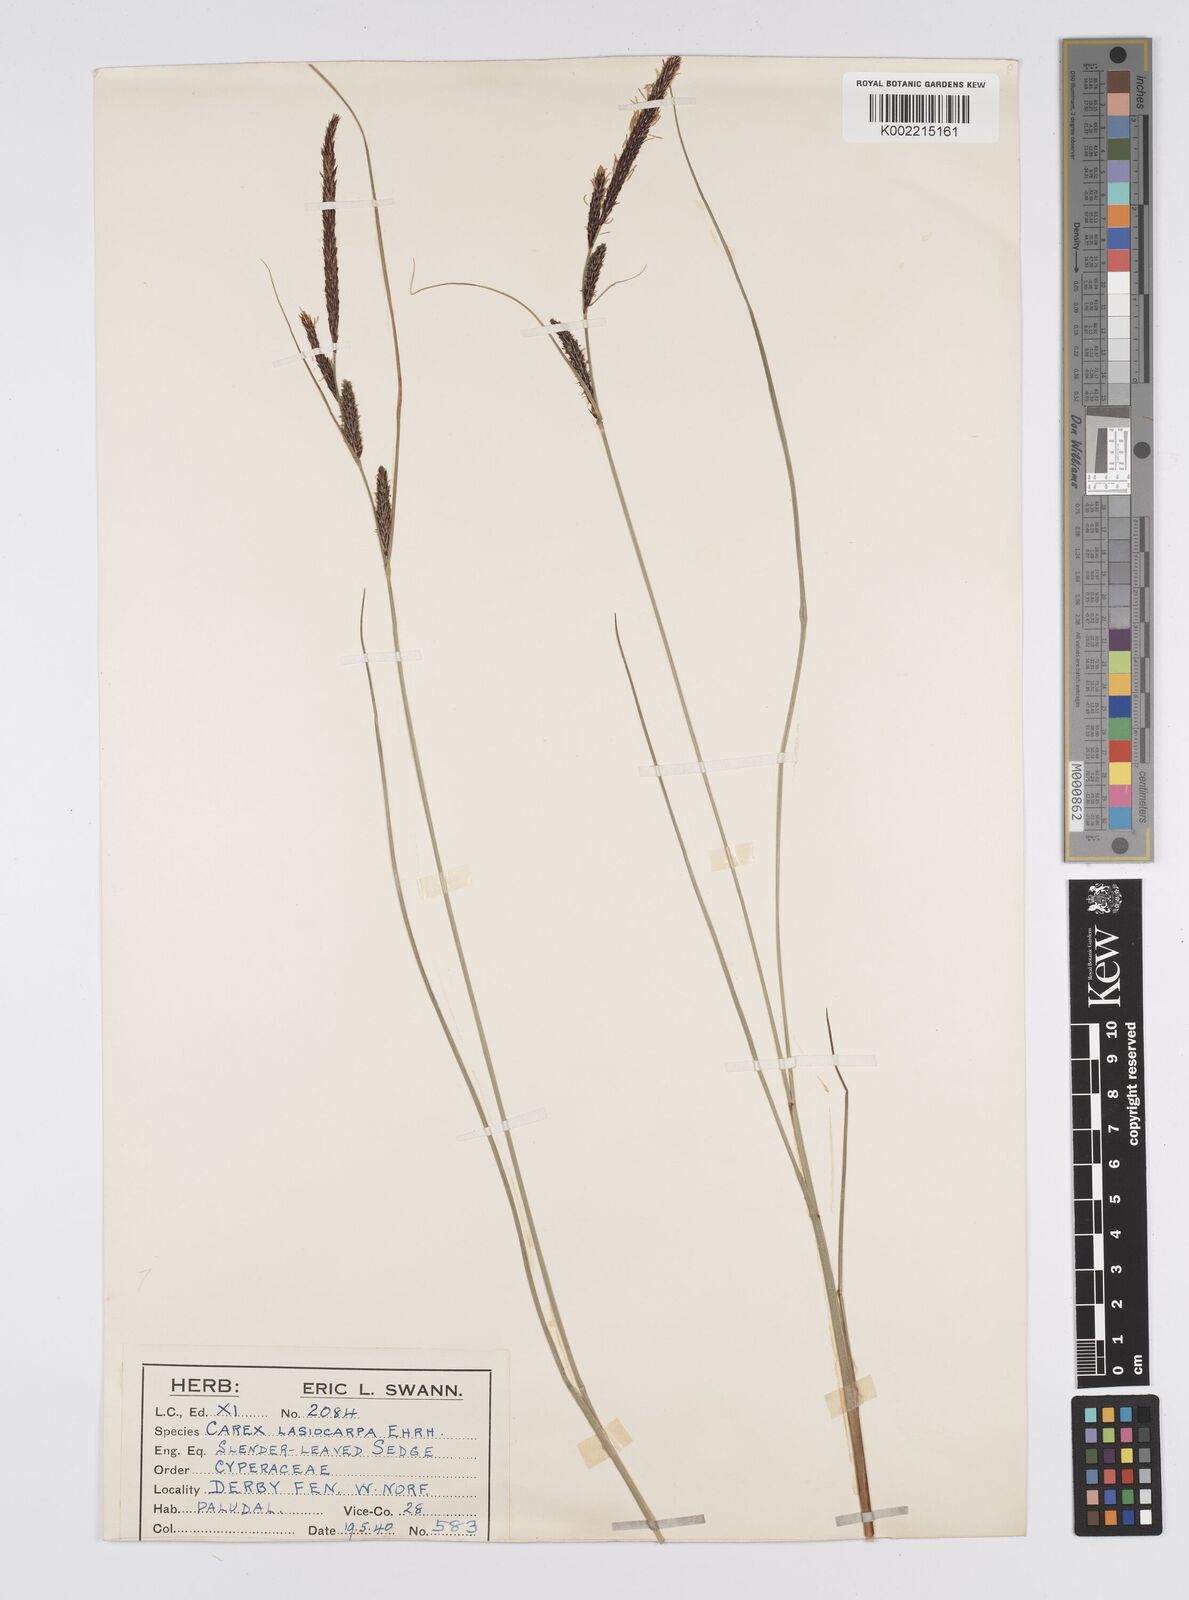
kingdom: Plantae
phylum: Tracheophyta
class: Liliopsida
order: Poales
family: Cyperaceae
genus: Carex
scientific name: Carex lasiocarpa
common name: Slender sedge
